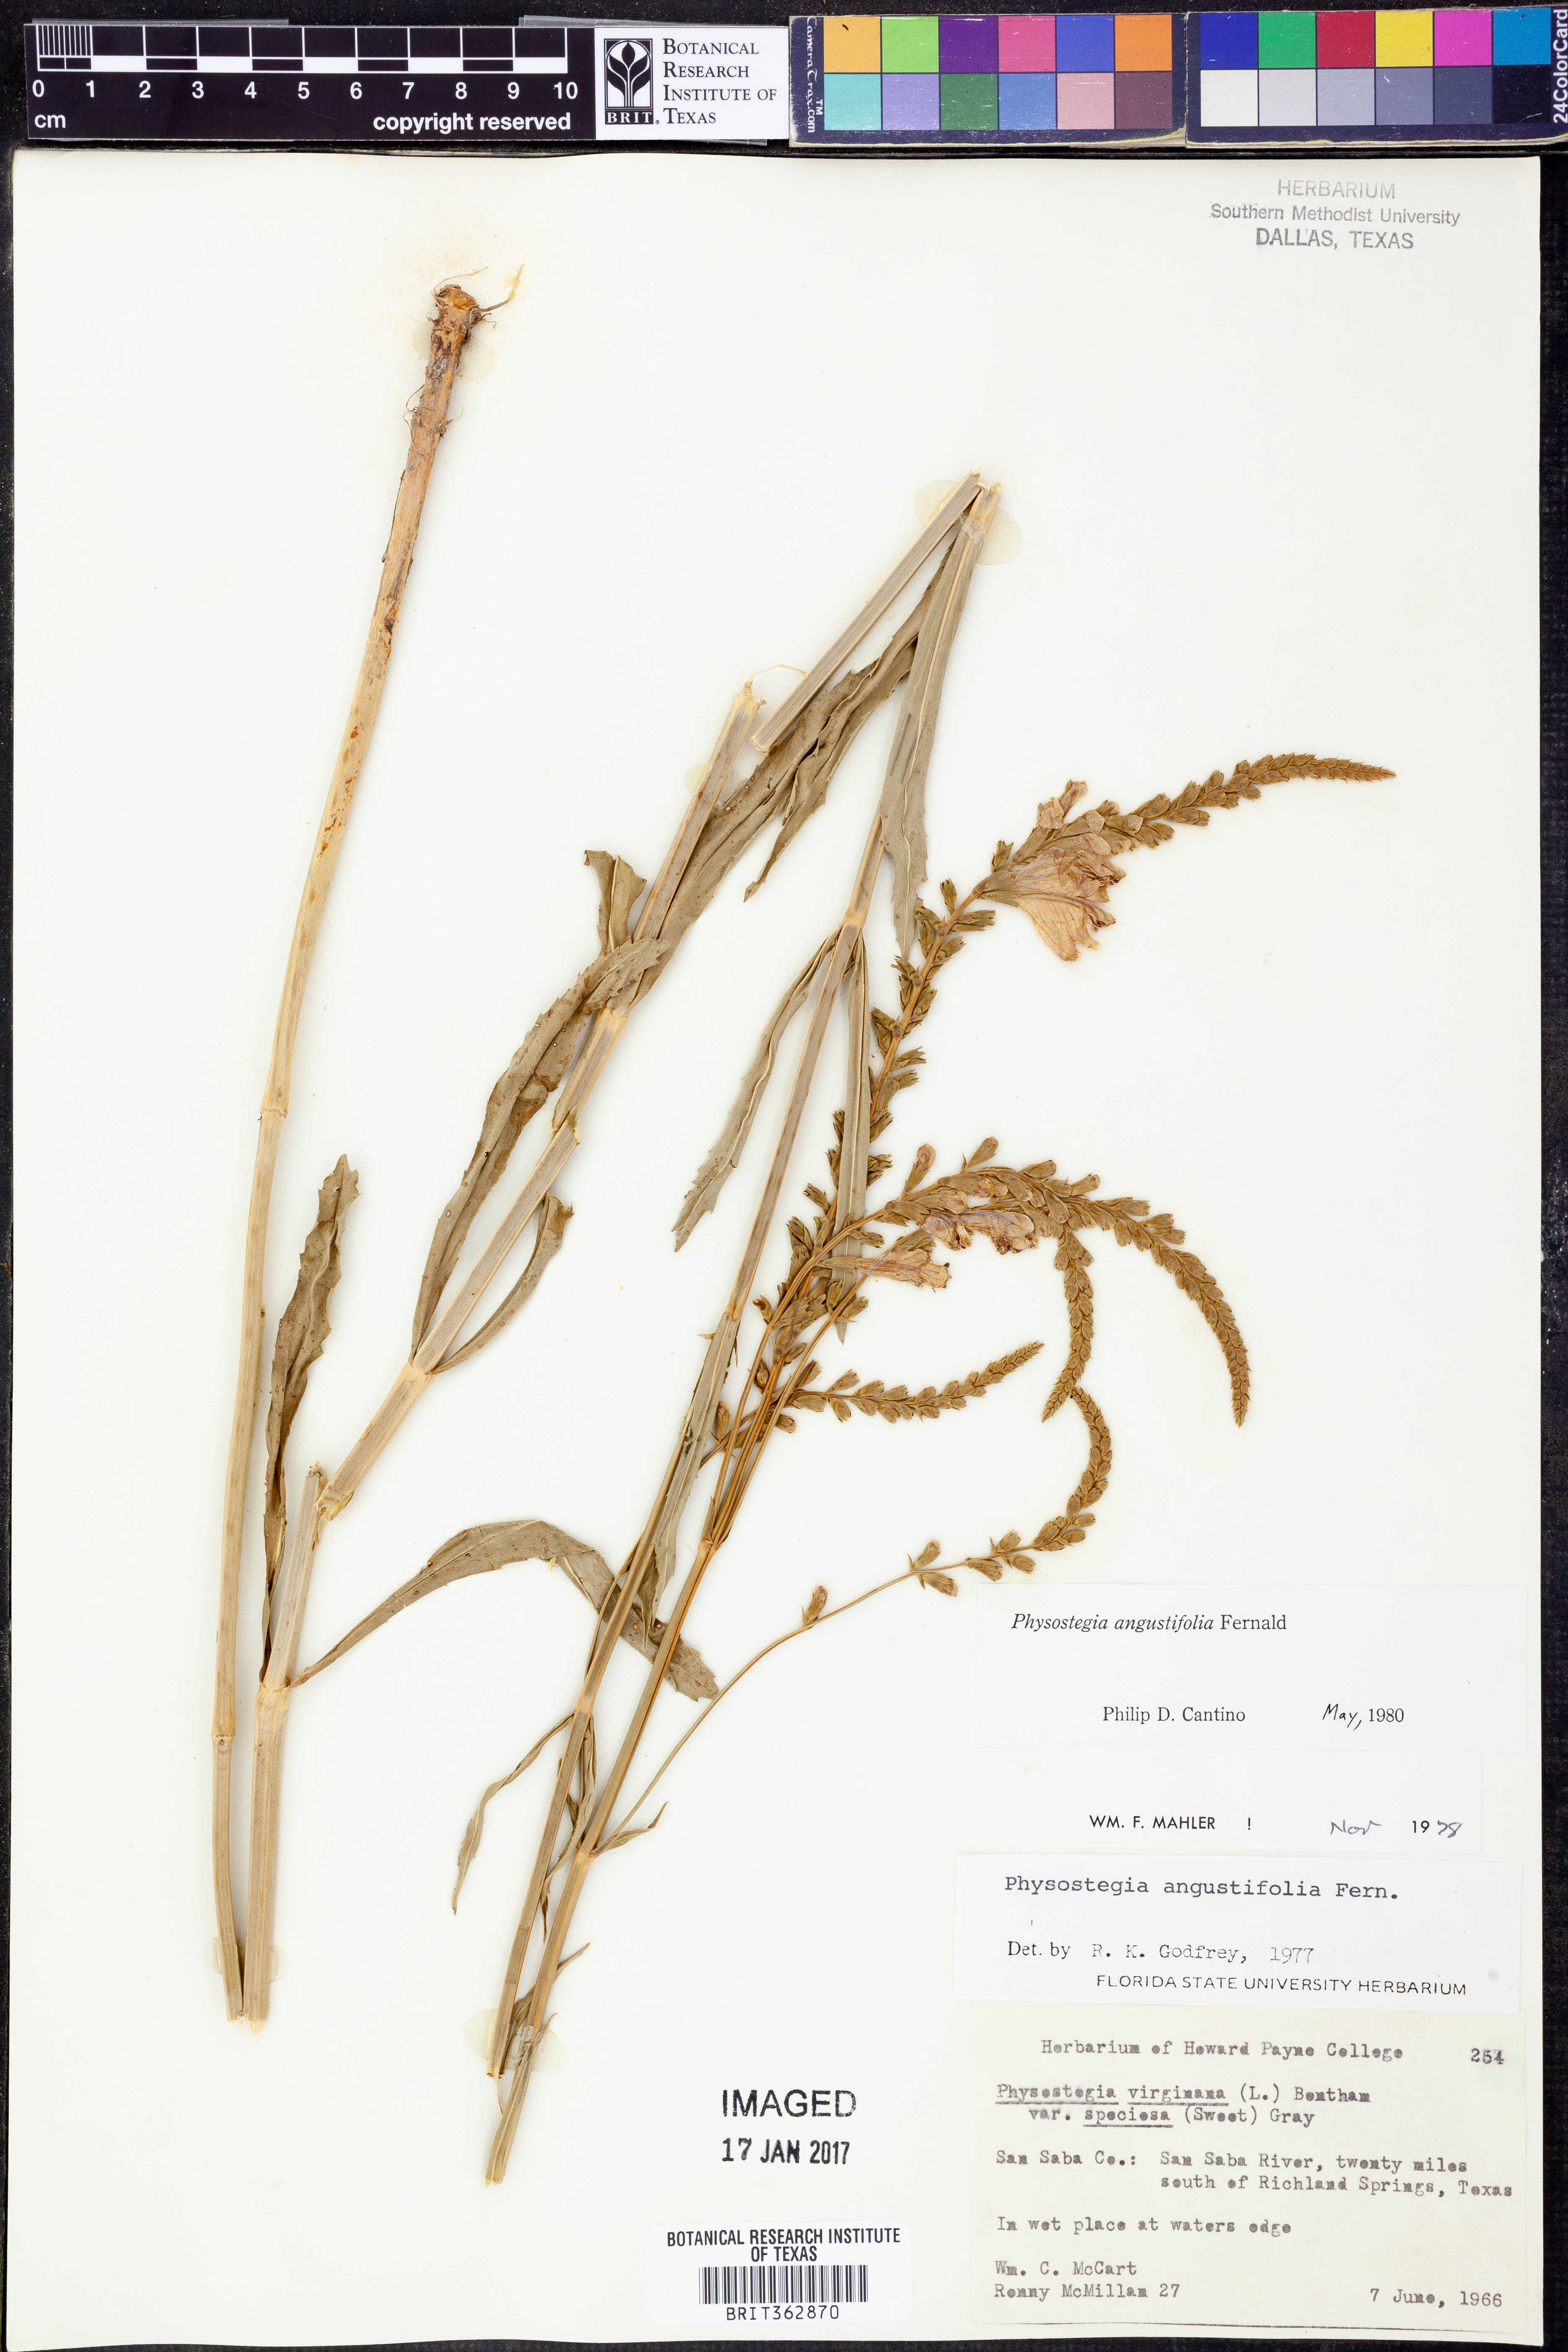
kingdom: Plantae
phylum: Tracheophyta
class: Magnoliopsida
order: Lamiales
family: Lamiaceae
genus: Physostegia
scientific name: Physostegia angustifolia
